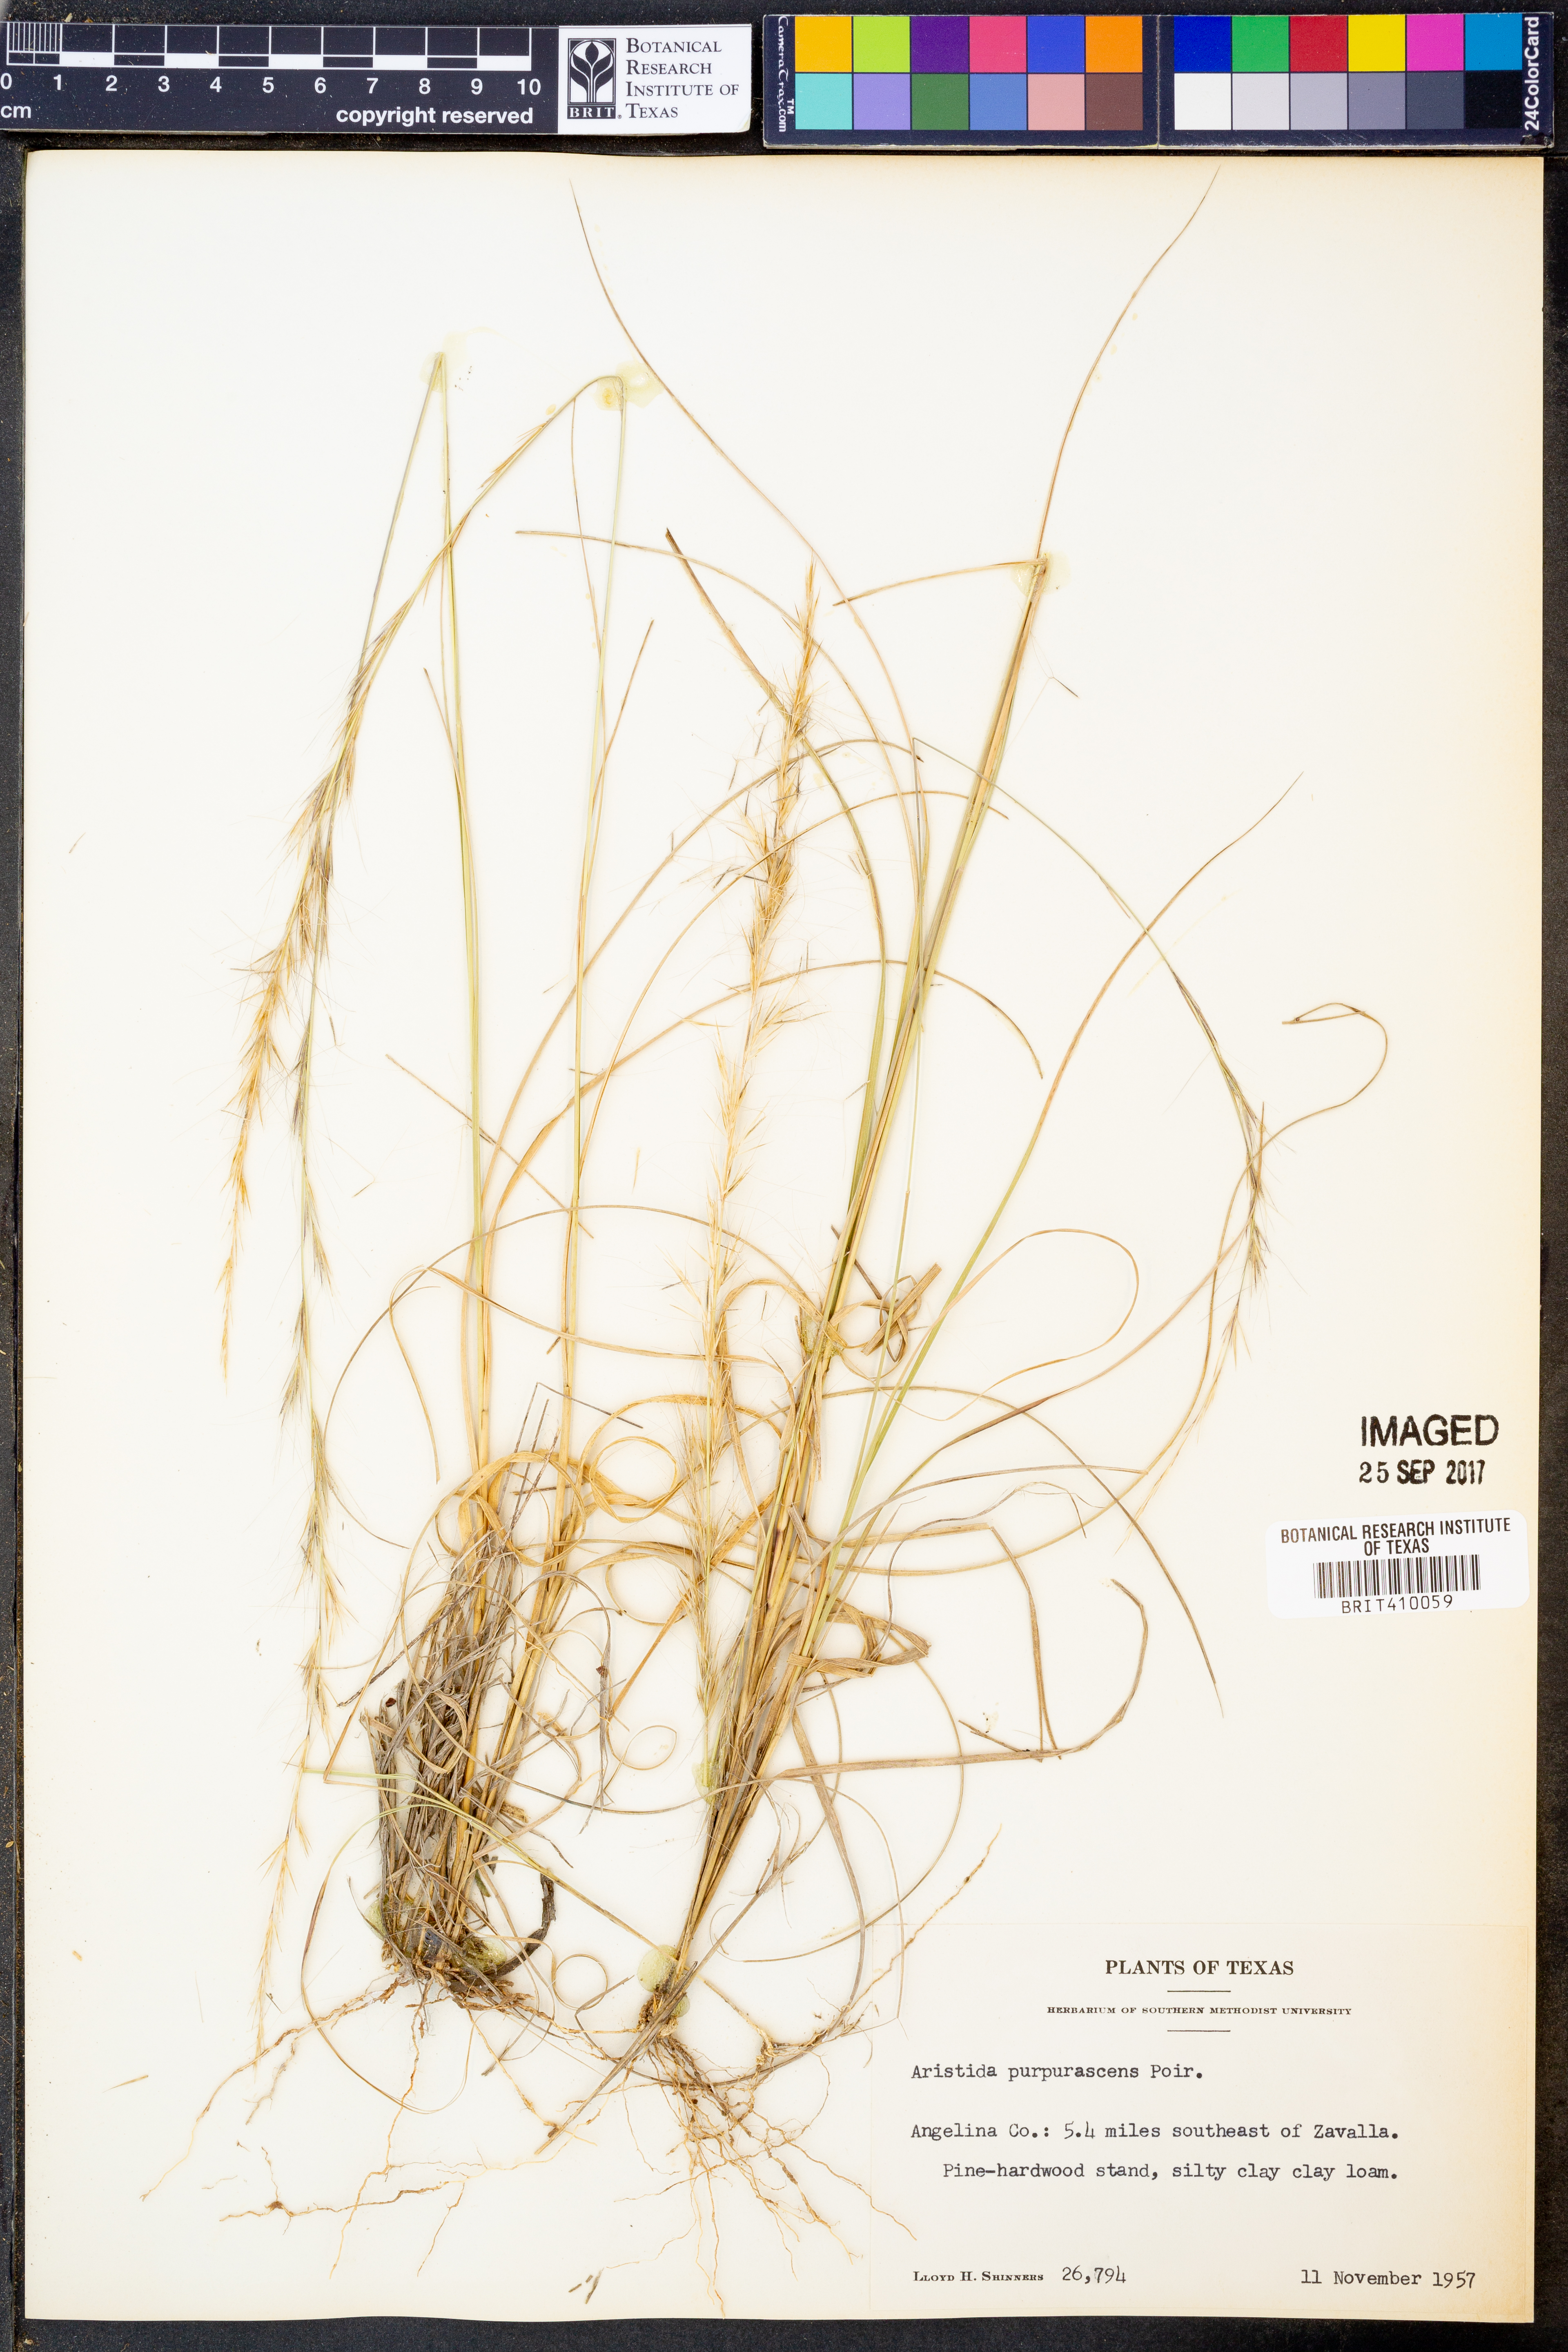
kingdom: Plantae
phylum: Tracheophyta
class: Liliopsida
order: Poales
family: Poaceae
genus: Aristida
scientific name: Aristida purpurascens
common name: Arrow-feather
